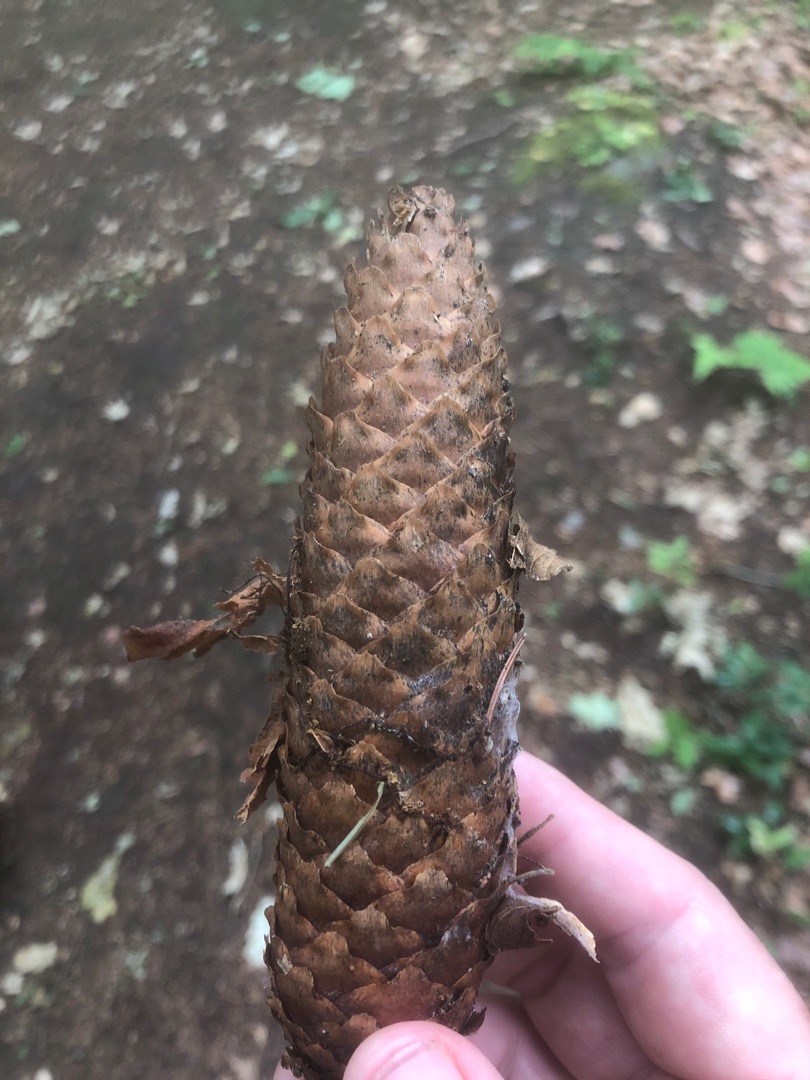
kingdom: Plantae
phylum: Tracheophyta
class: Pinopsida
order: Pinales
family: Pinaceae
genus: Picea
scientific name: Picea abies
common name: Rød-gran
